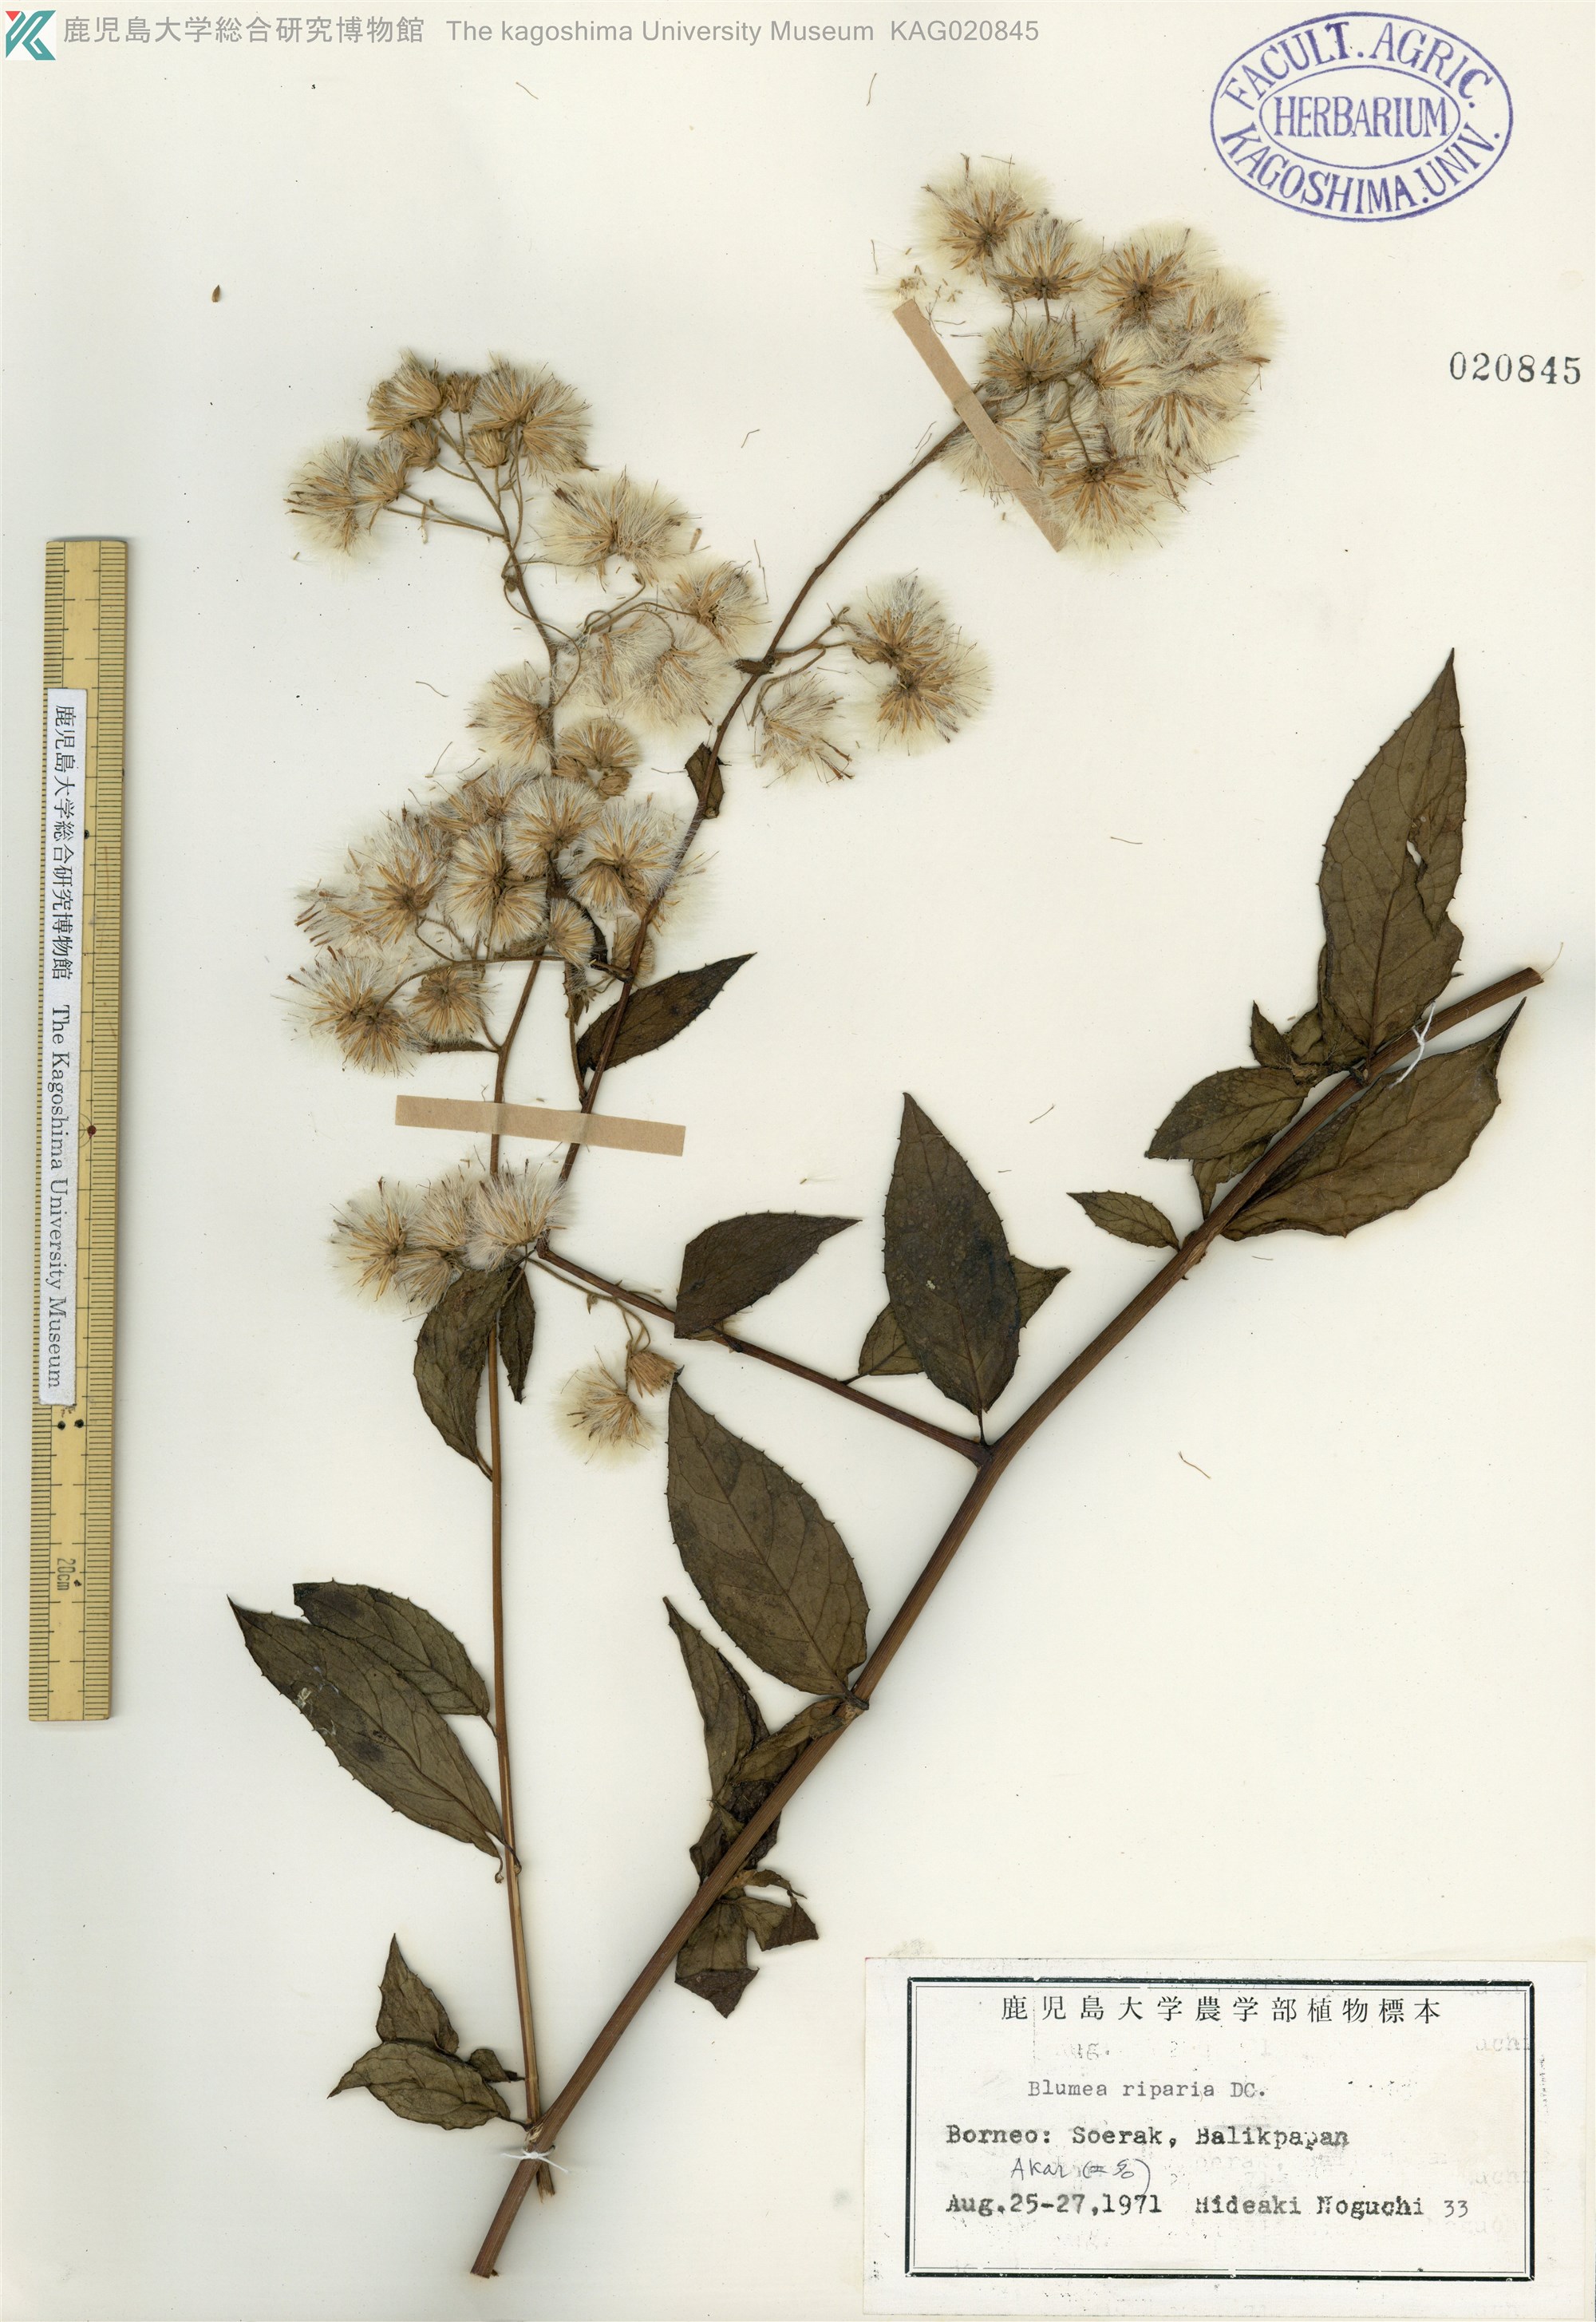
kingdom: Plantae
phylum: Tracheophyta
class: Magnoliopsida
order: Asterales
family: Asteraceae
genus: Blumea
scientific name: Blumea megacephala
